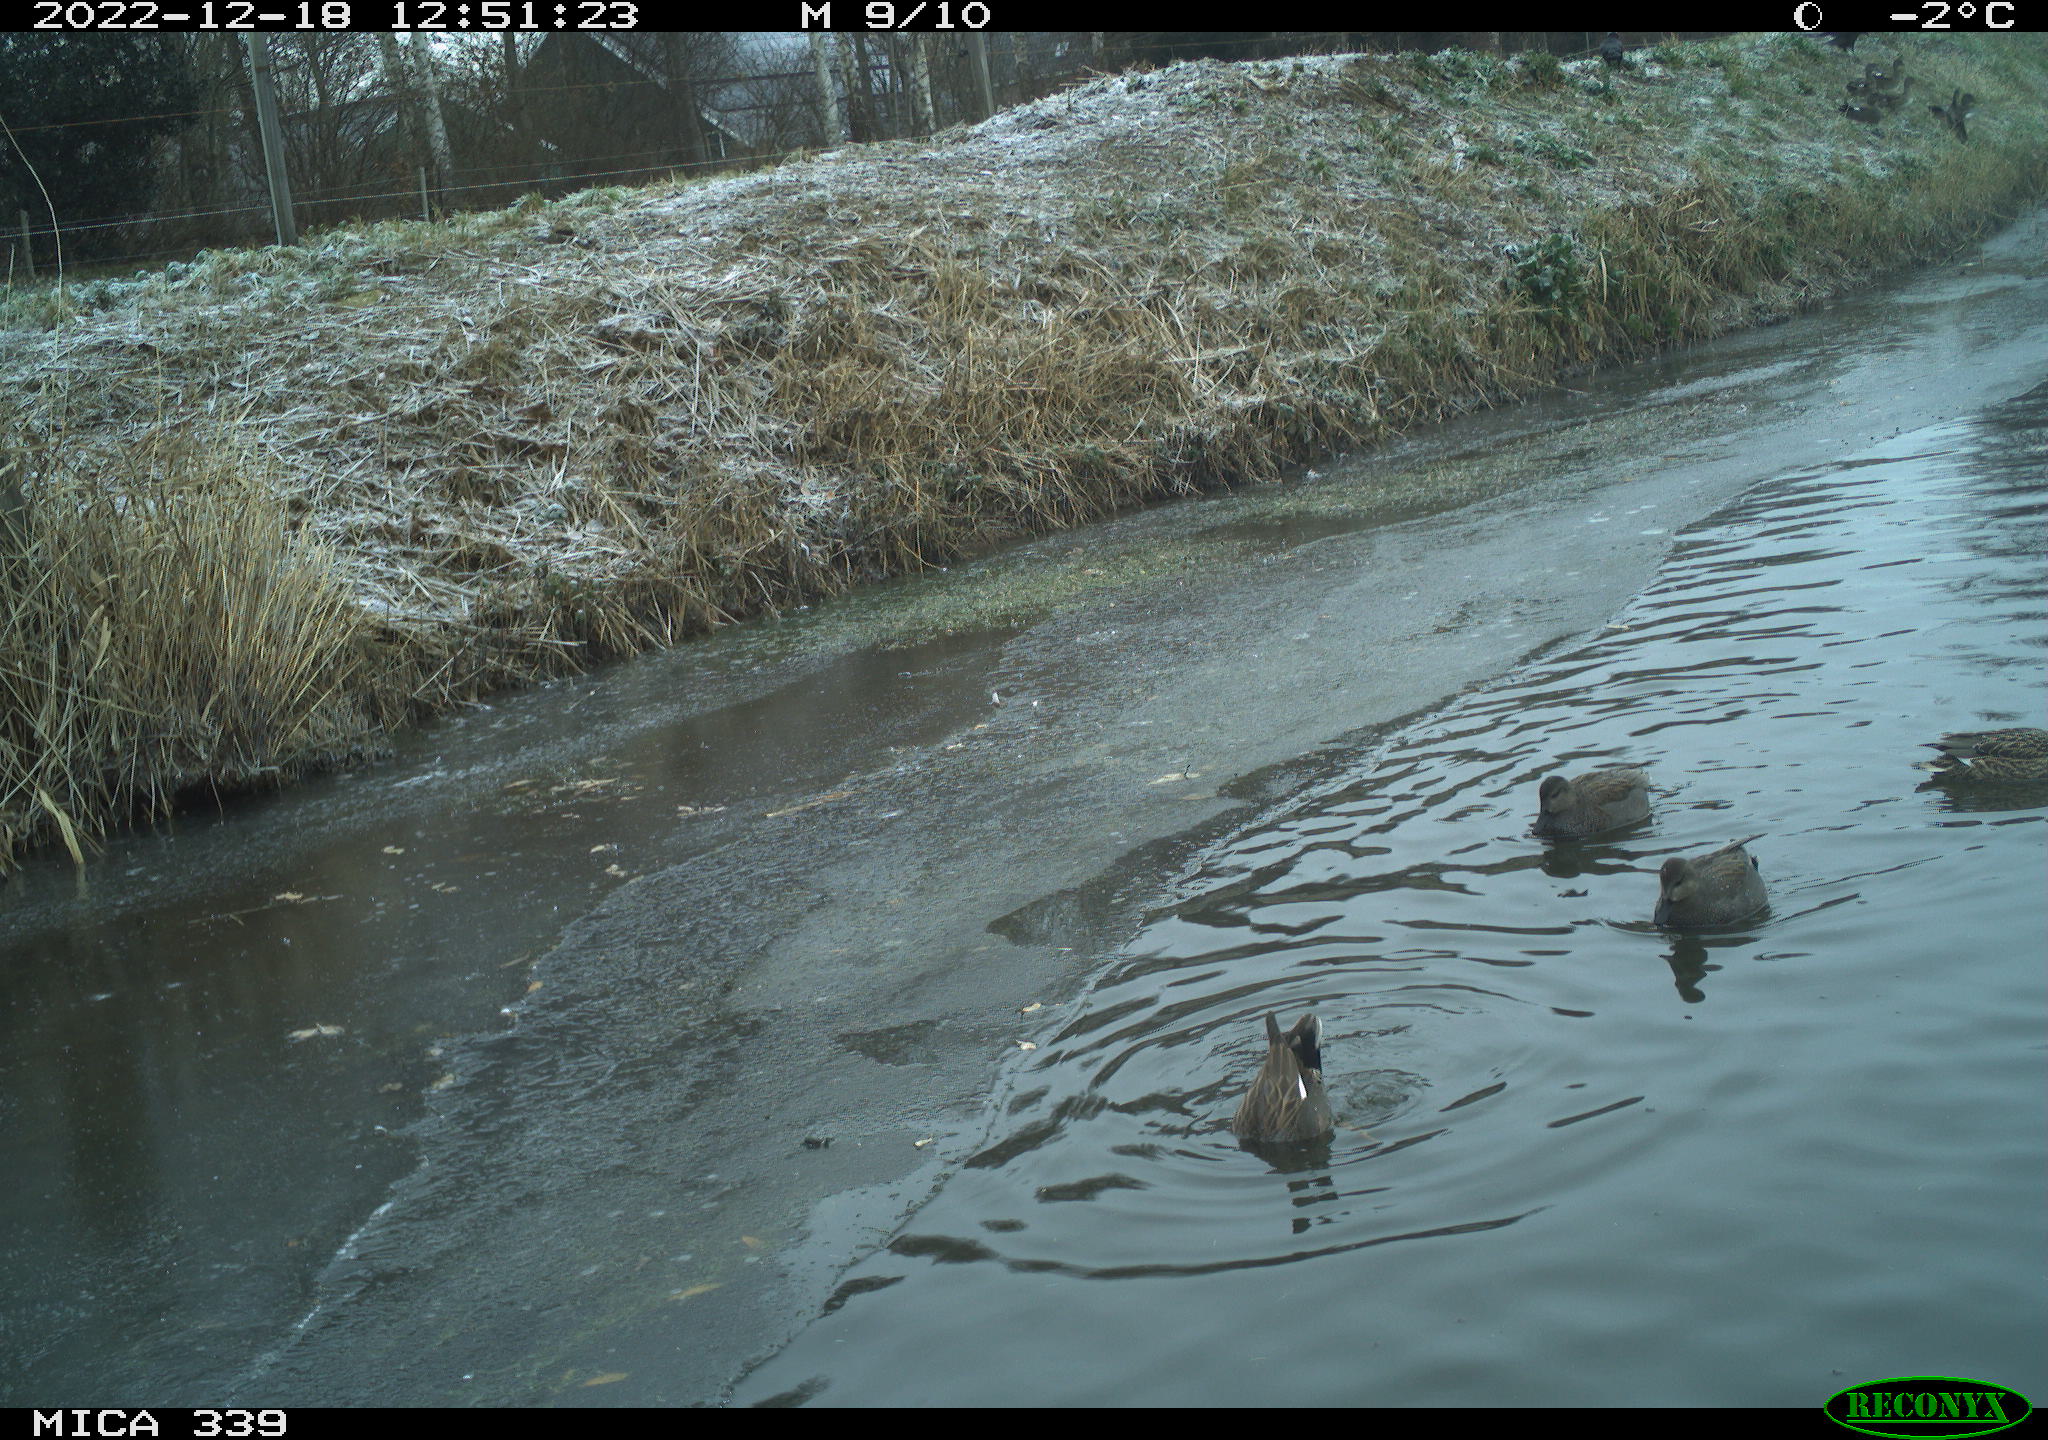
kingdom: Animalia
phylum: Chordata
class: Aves
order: Anseriformes
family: Anatidae
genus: Anas
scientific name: Anas
